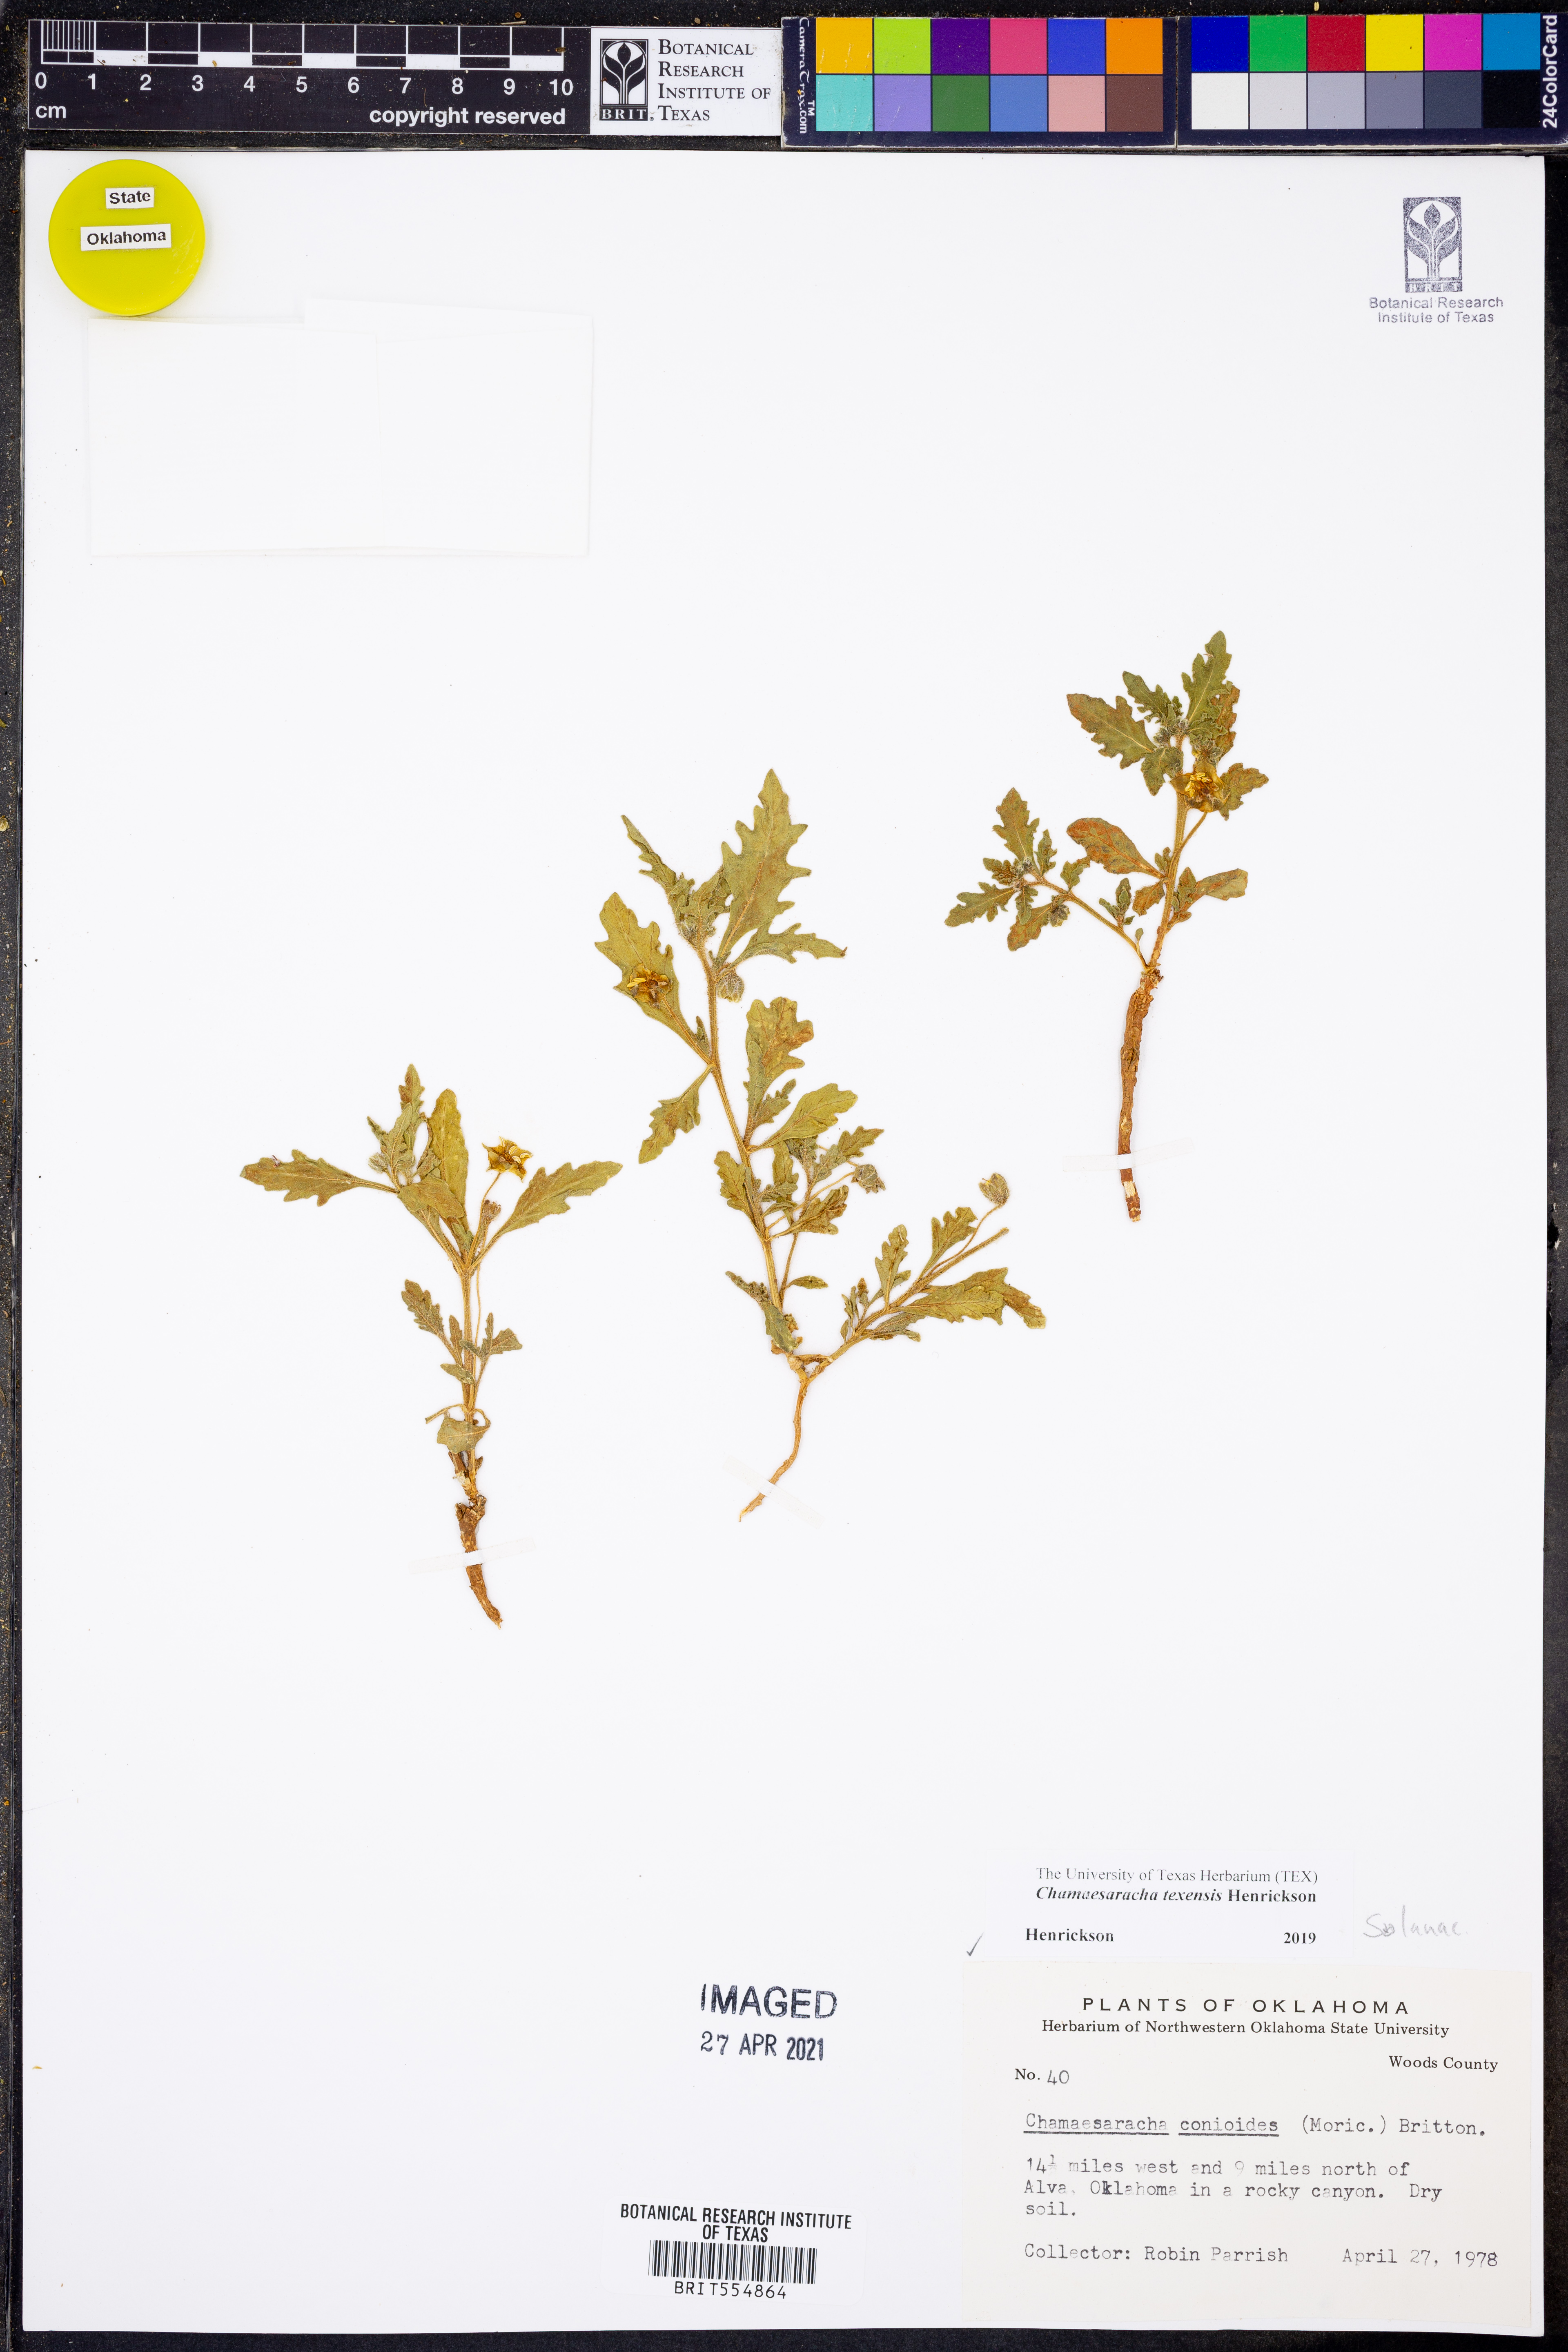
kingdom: Plantae
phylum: Tracheophyta
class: Magnoliopsida
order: Solanales
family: Solanaceae
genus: Chamaesaracha
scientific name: Chamaesaracha texensis
